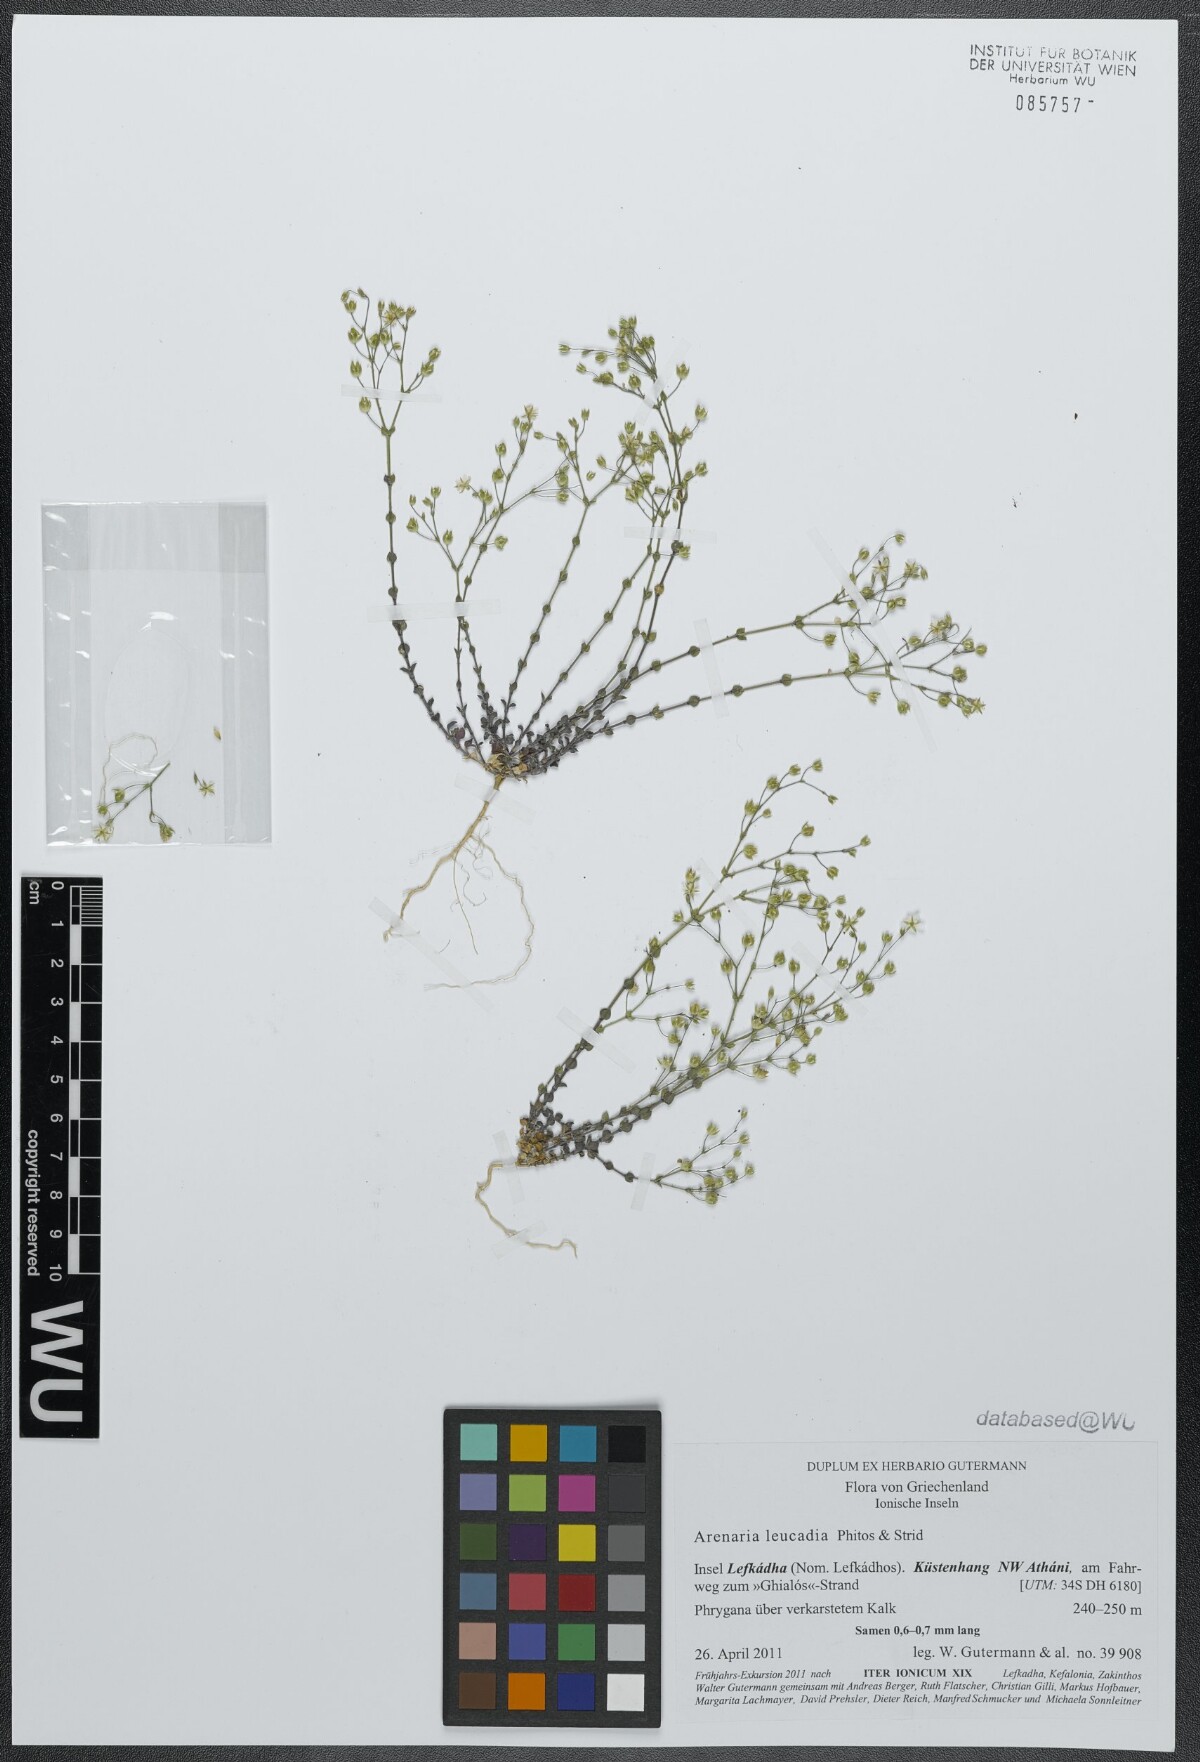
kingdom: Plantae
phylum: Tracheophyta
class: Magnoliopsida
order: Caryophyllales
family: Caryophyllaceae
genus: Arenaria
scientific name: Arenaria leucadia
